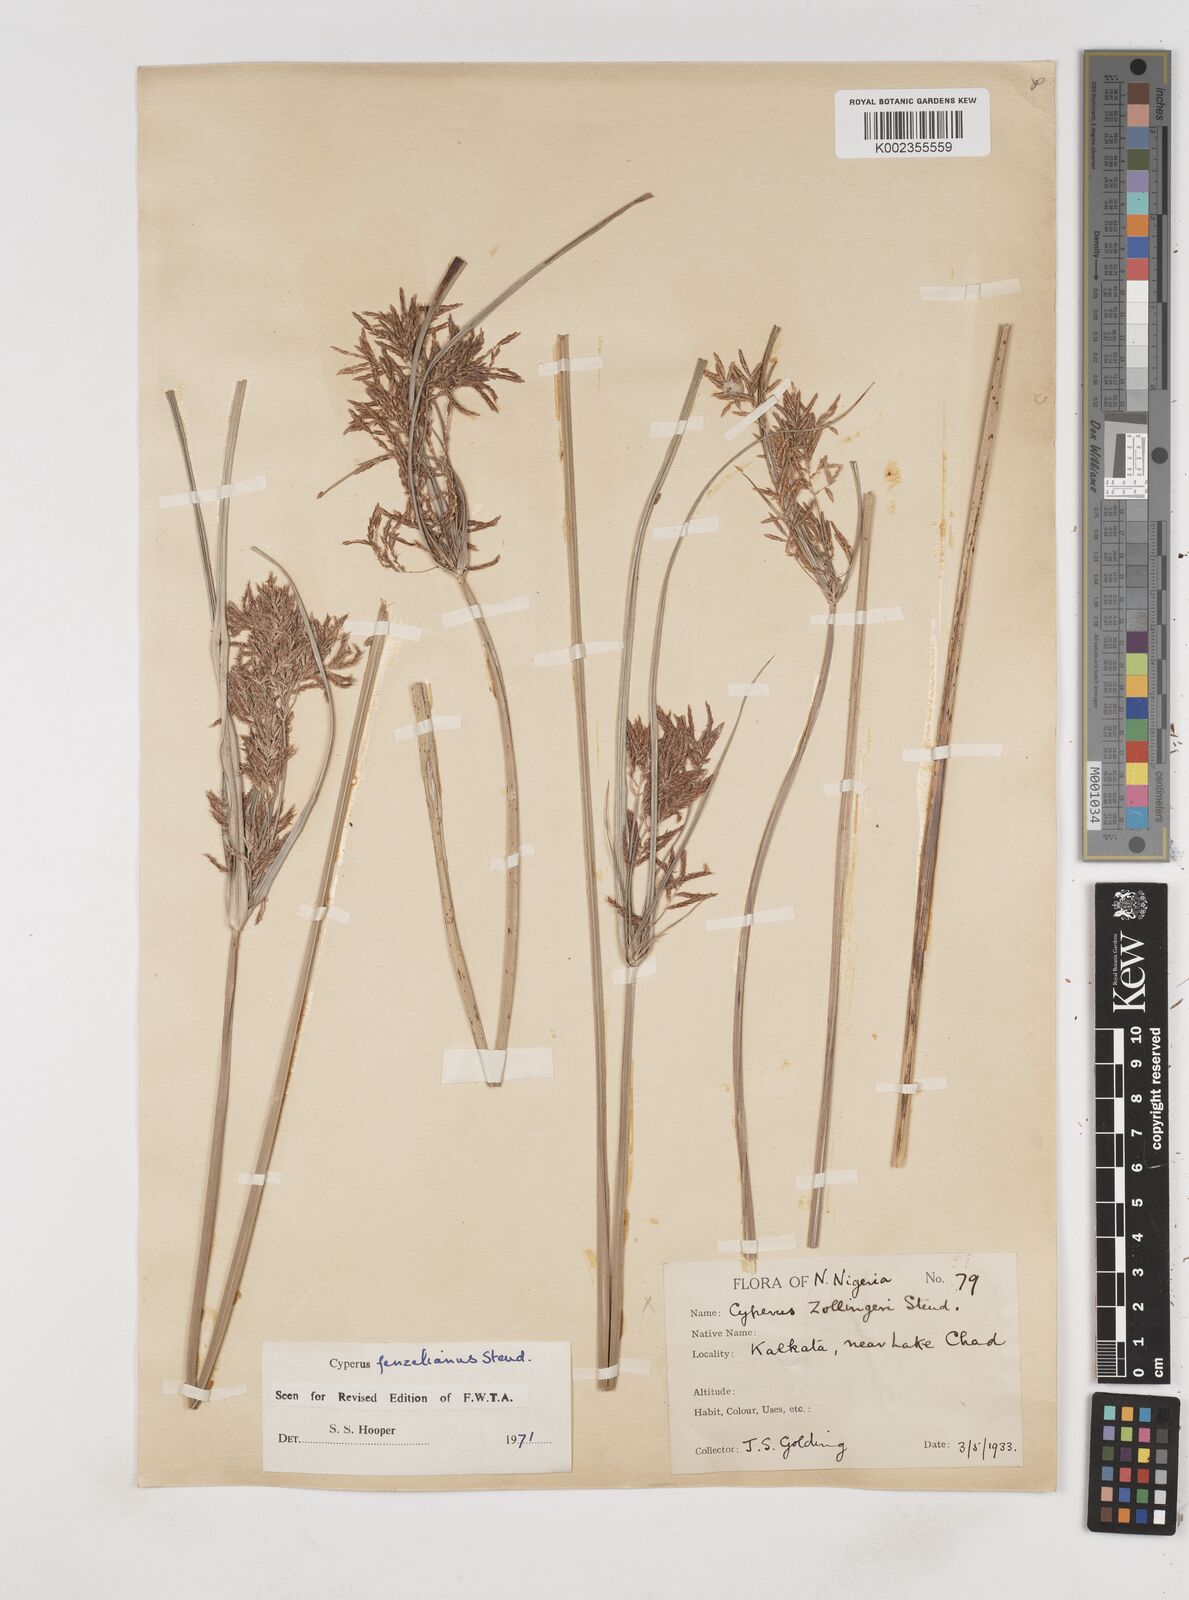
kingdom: Plantae
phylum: Tracheophyta
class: Liliopsida
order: Poales
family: Cyperaceae
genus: Cyperus
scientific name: Cyperus longus
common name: Galingale
